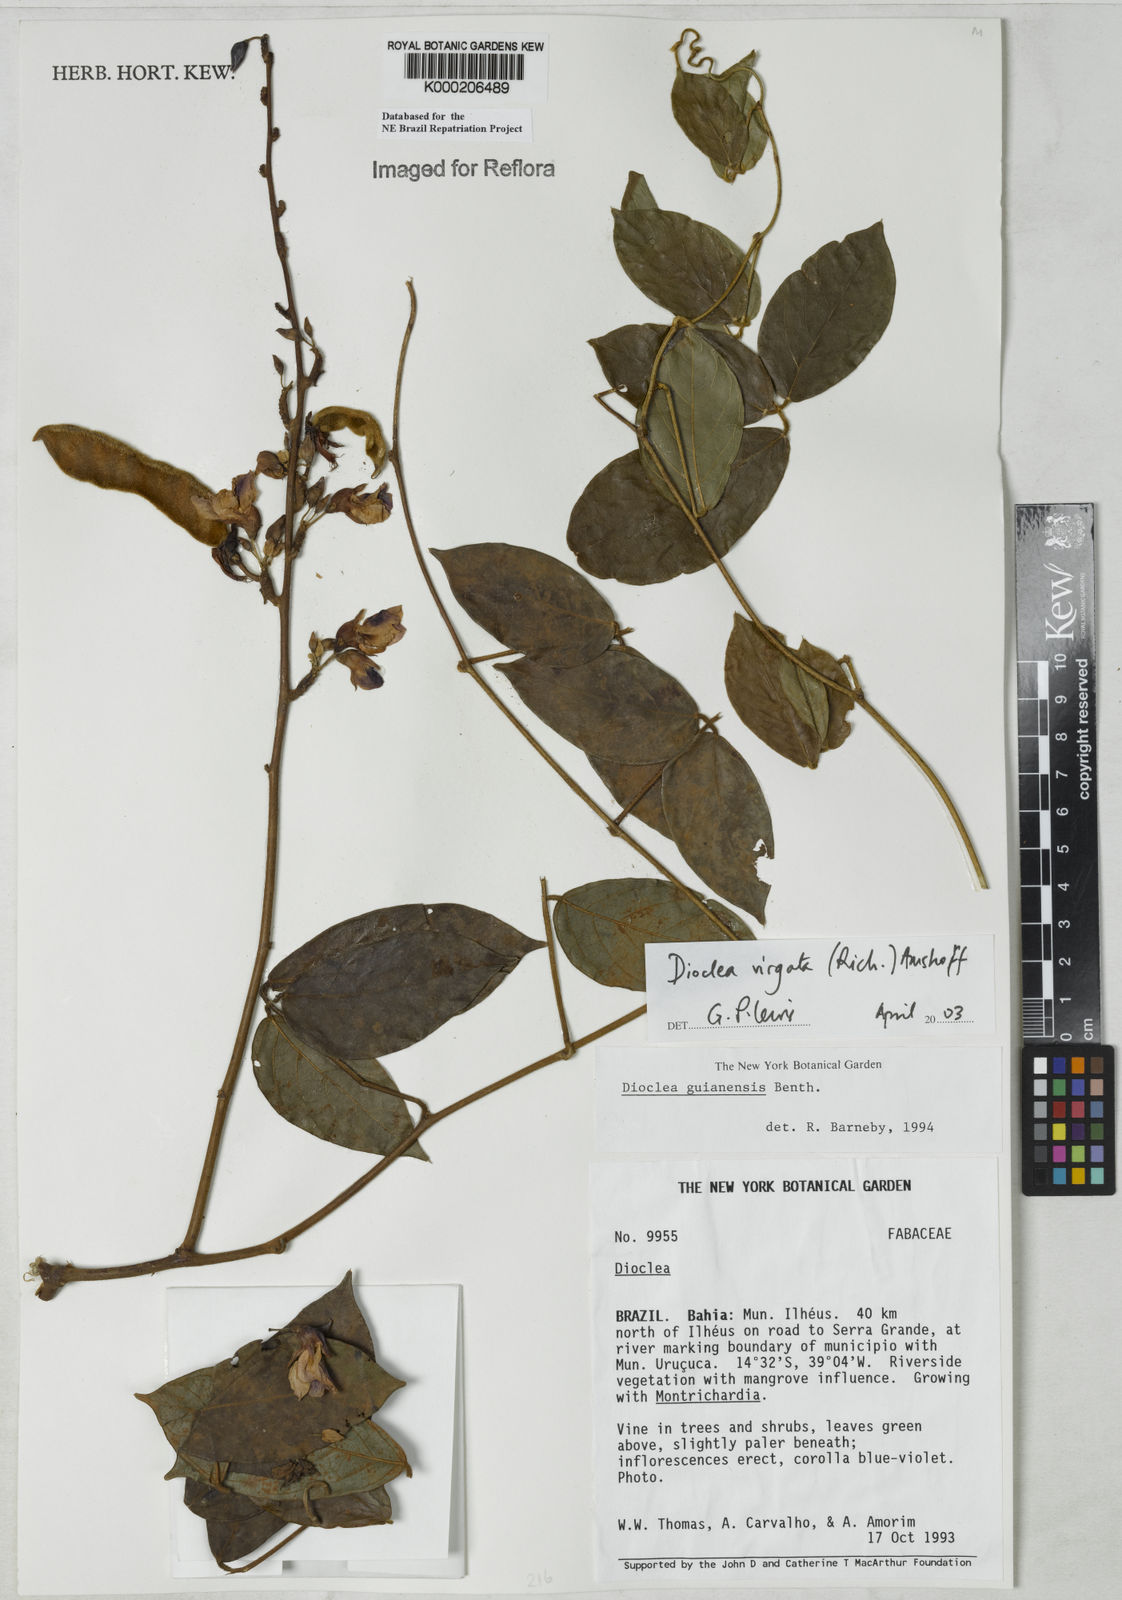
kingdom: Plantae
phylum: Tracheophyta
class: Magnoliopsida
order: Fabales
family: Fabaceae
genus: Dioclea
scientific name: Dioclea virgata
